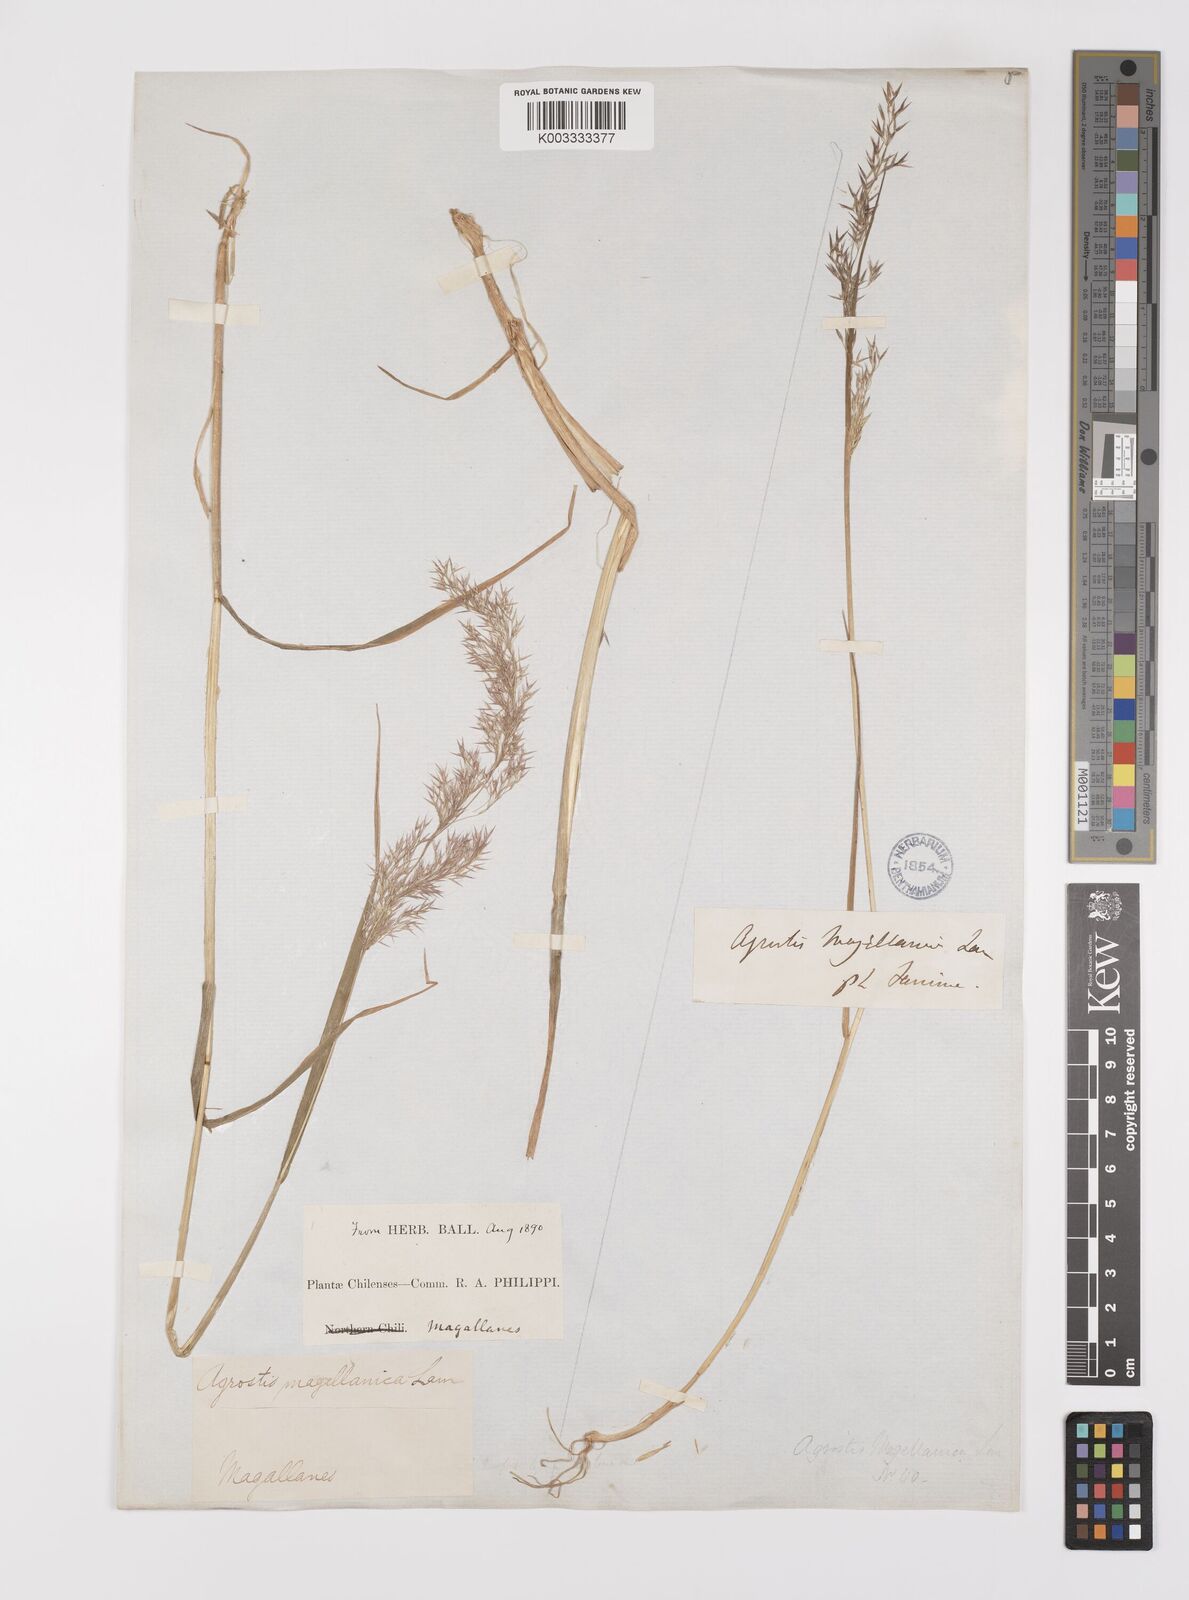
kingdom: Plantae
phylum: Tracheophyta
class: Liliopsida
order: Poales
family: Poaceae
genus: Polypogon
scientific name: Polypogon magellanicus
